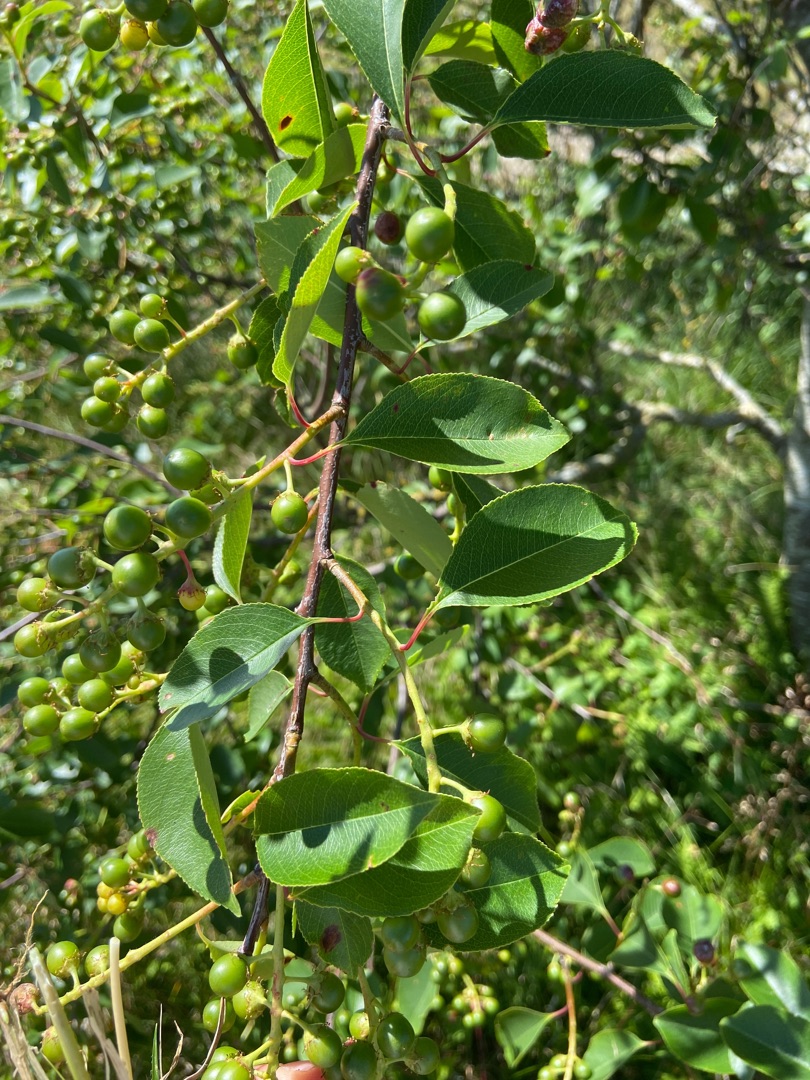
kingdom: Plantae
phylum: Tracheophyta
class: Magnoliopsida
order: Rosales
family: Rosaceae
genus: Prunus
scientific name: Prunus padus
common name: Almindelig hæg
